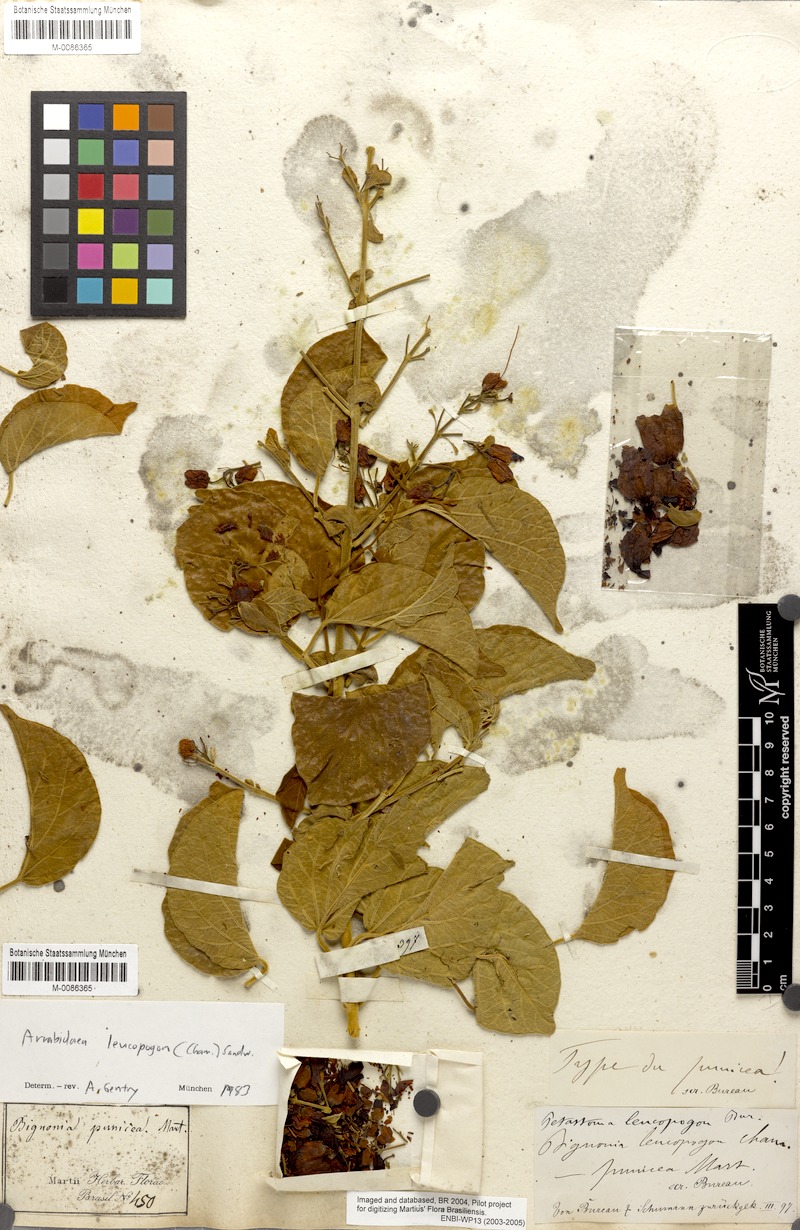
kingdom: Plantae
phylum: Tracheophyta
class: Magnoliopsida
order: Lamiales
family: Bignoniaceae
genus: Fridericia
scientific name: Fridericia leucopogon
